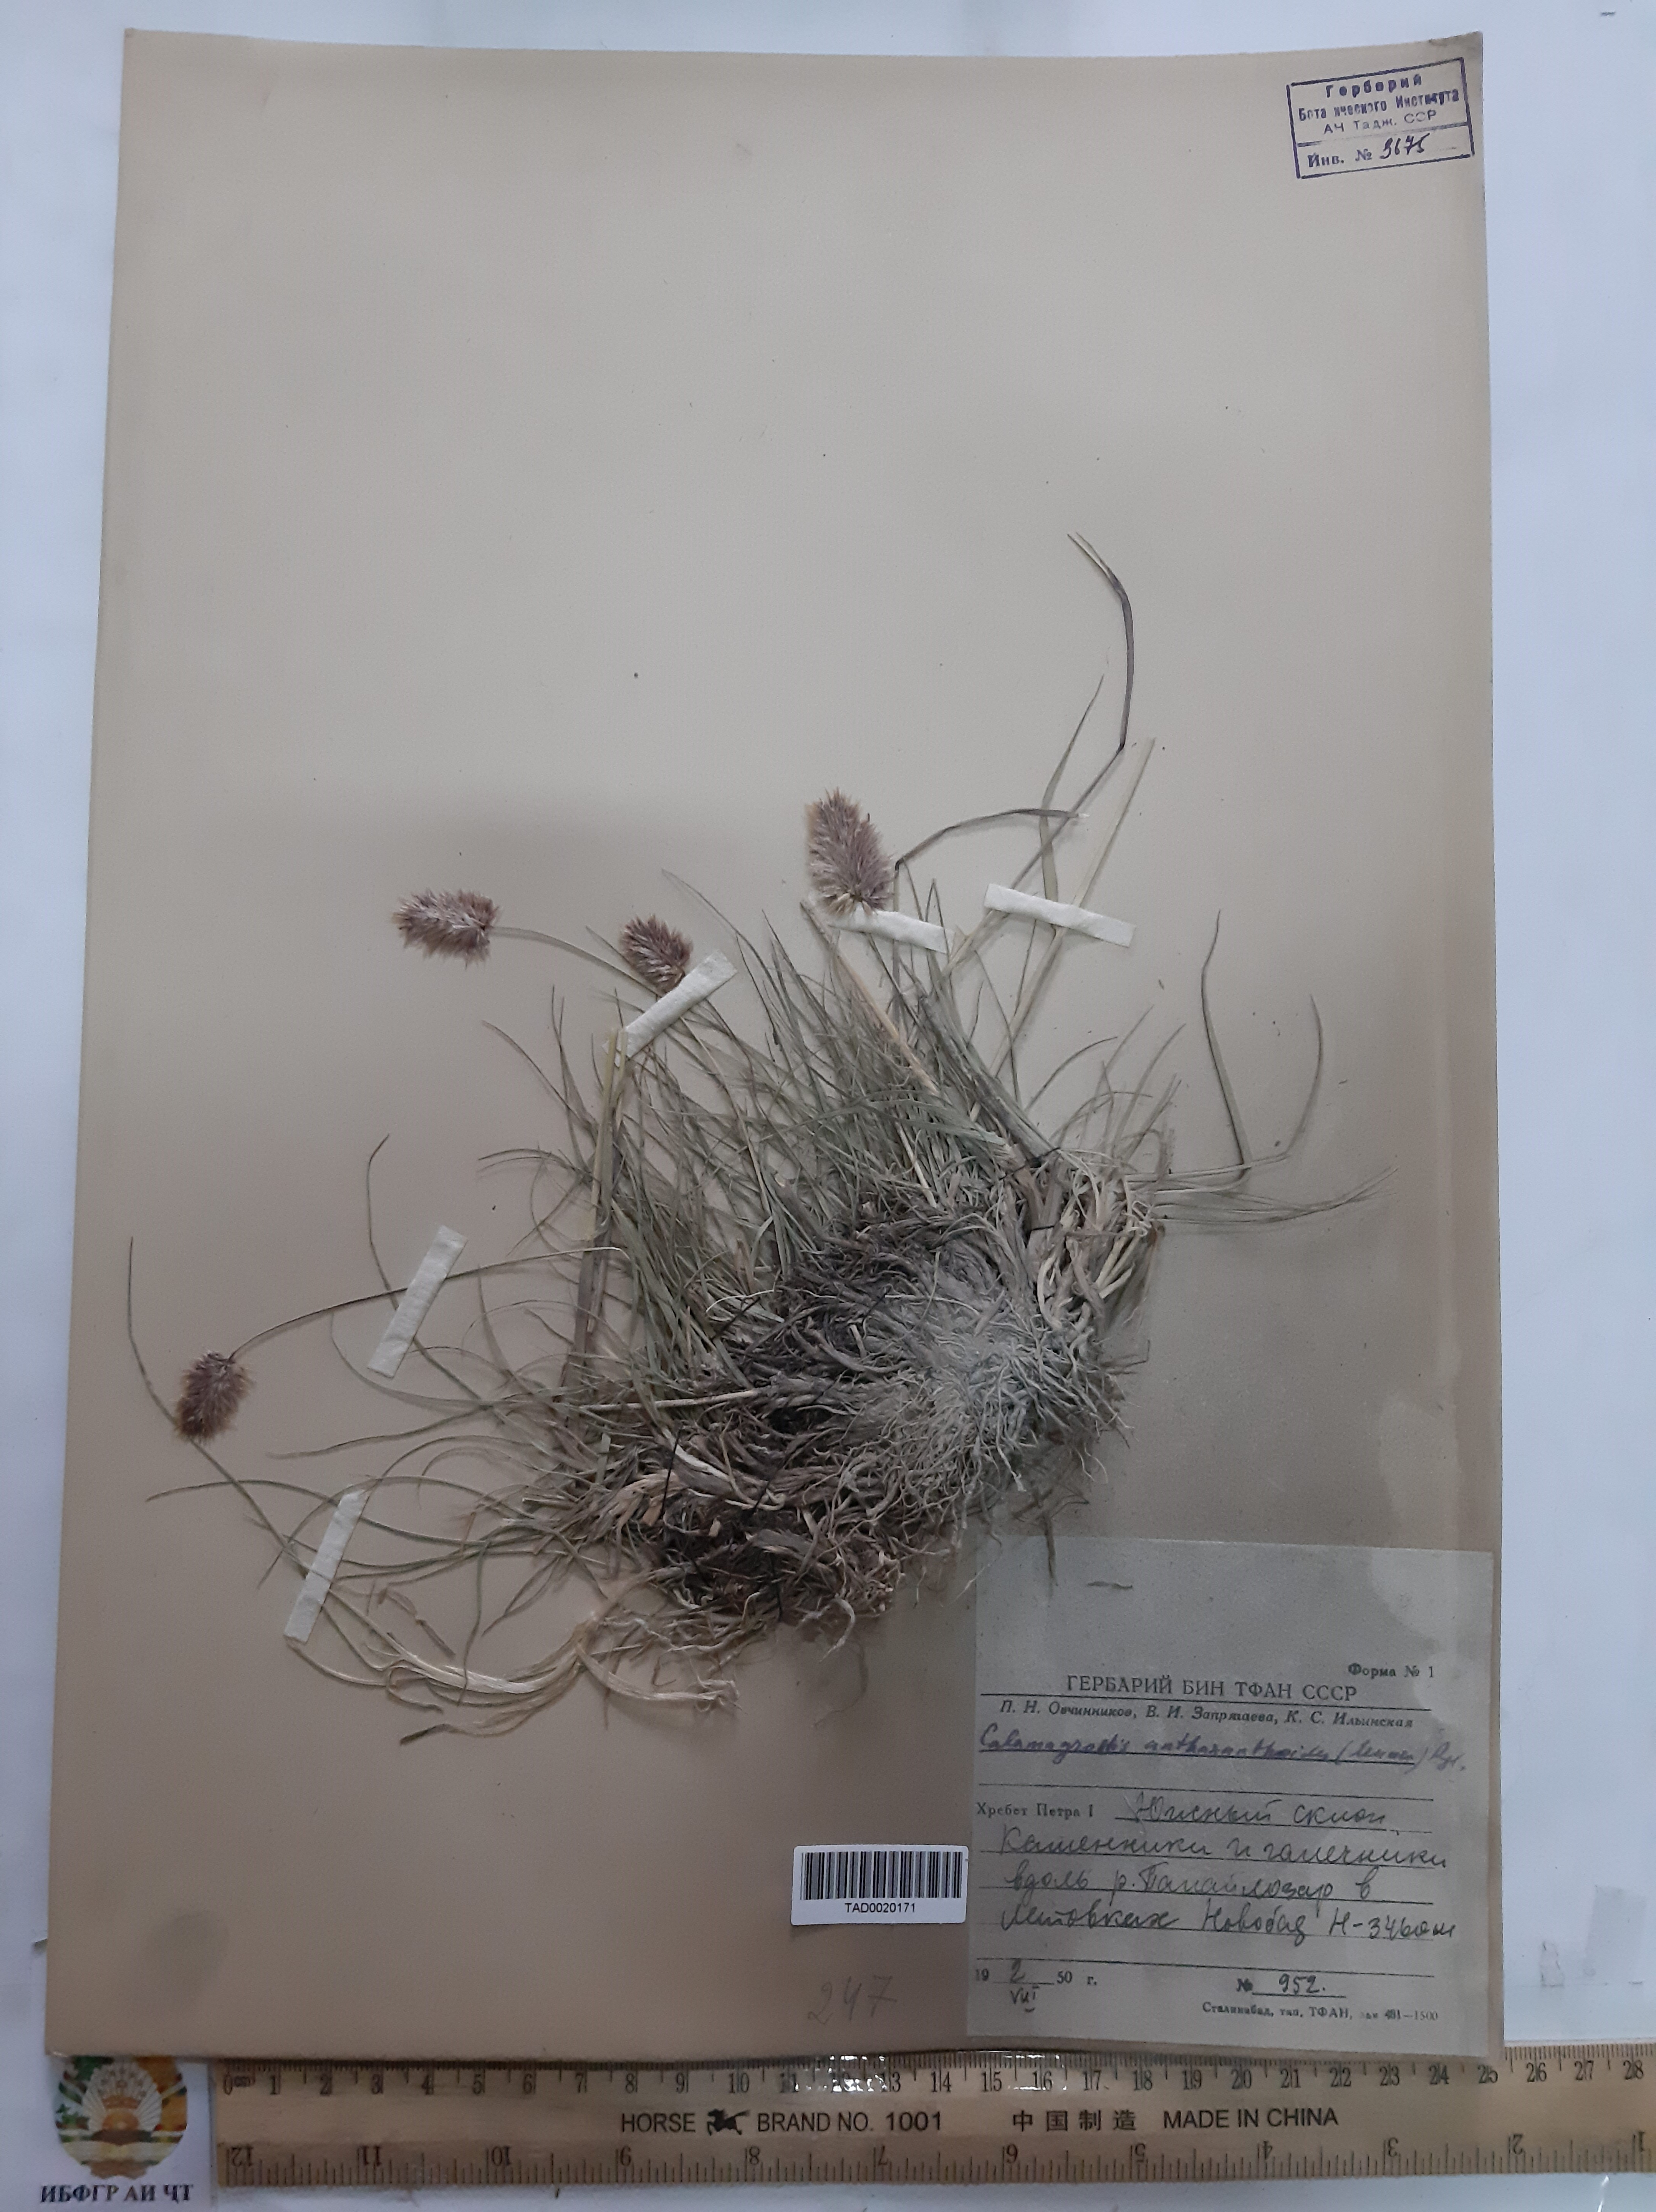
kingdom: Plantae
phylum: Tracheophyta
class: Liliopsida
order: Poales
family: Poaceae
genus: Calamagrostis
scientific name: Calamagrostis anthoxanthoides
